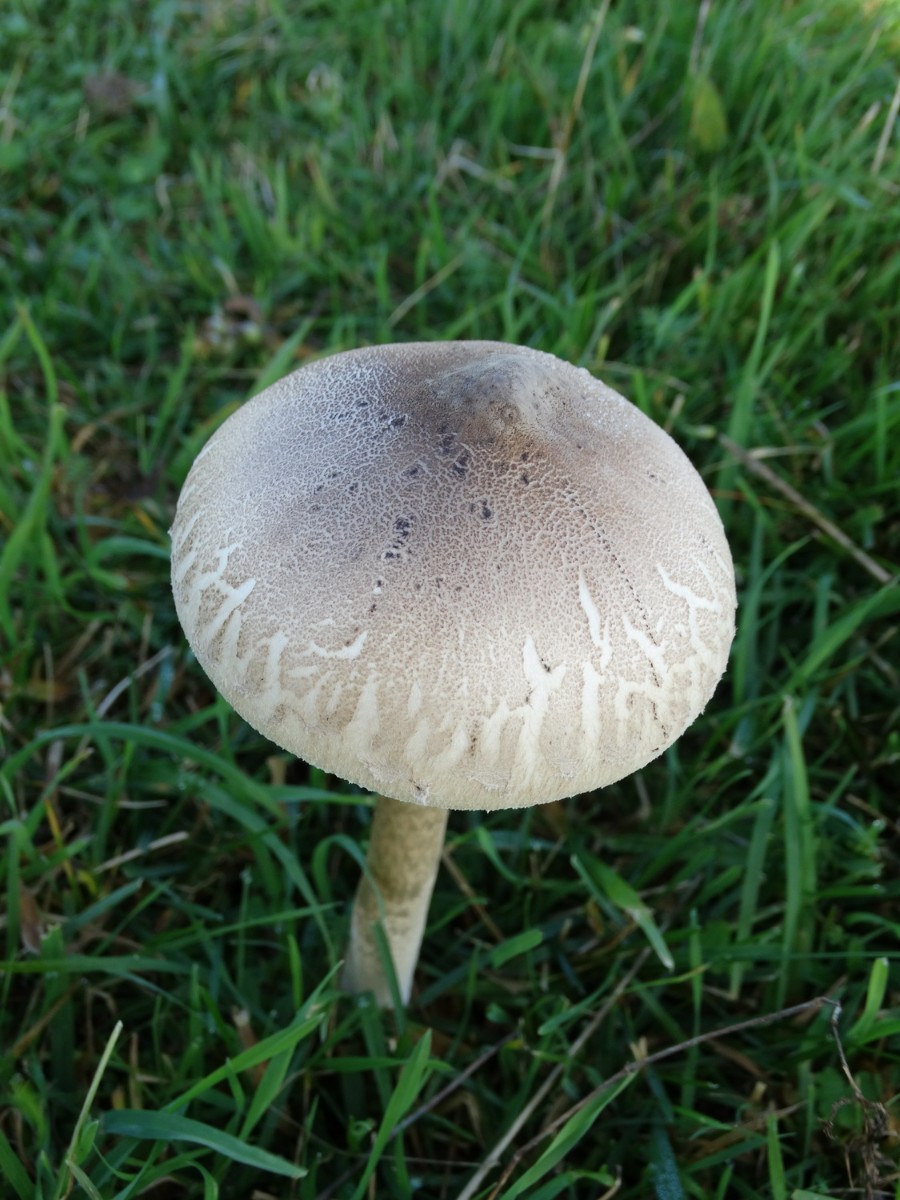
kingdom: Fungi
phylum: Basidiomycota
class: Agaricomycetes
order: Agaricales
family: Agaricaceae
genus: Macrolepiota
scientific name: Macrolepiota mastoidea
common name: puklet kæmpeparasolhat
